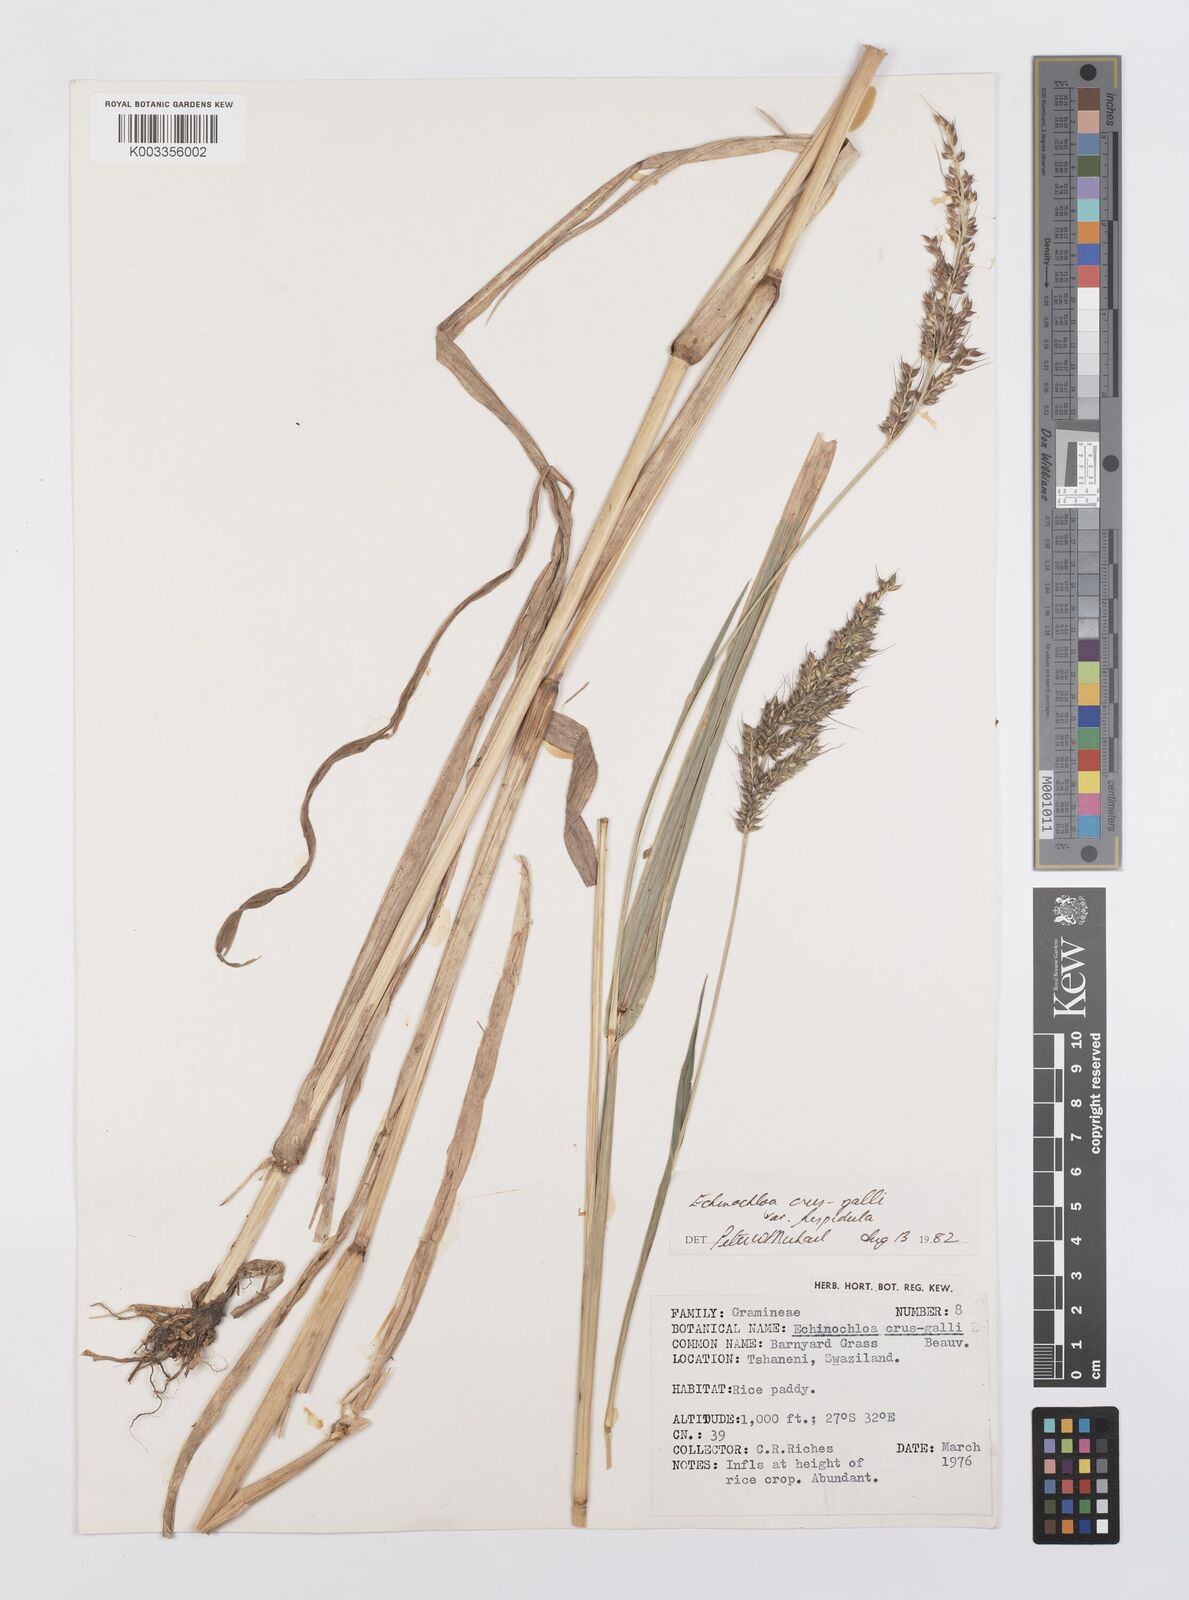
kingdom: Plantae
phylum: Tracheophyta
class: Liliopsida
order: Poales
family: Poaceae
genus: Echinochloa
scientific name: Echinochloa crus-galli
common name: Cockspur
